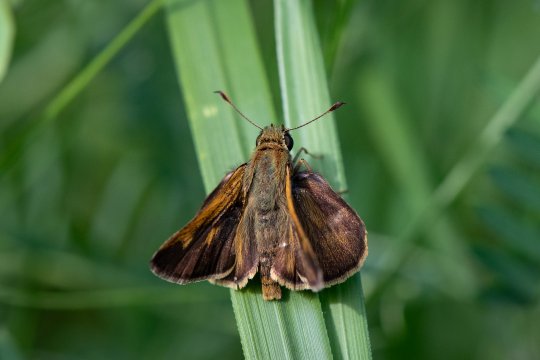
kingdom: Animalia
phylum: Arthropoda
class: Insecta
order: Lepidoptera
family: Hesperiidae
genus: Polites
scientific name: Polites egeremet
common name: Northern Broken-Dash
